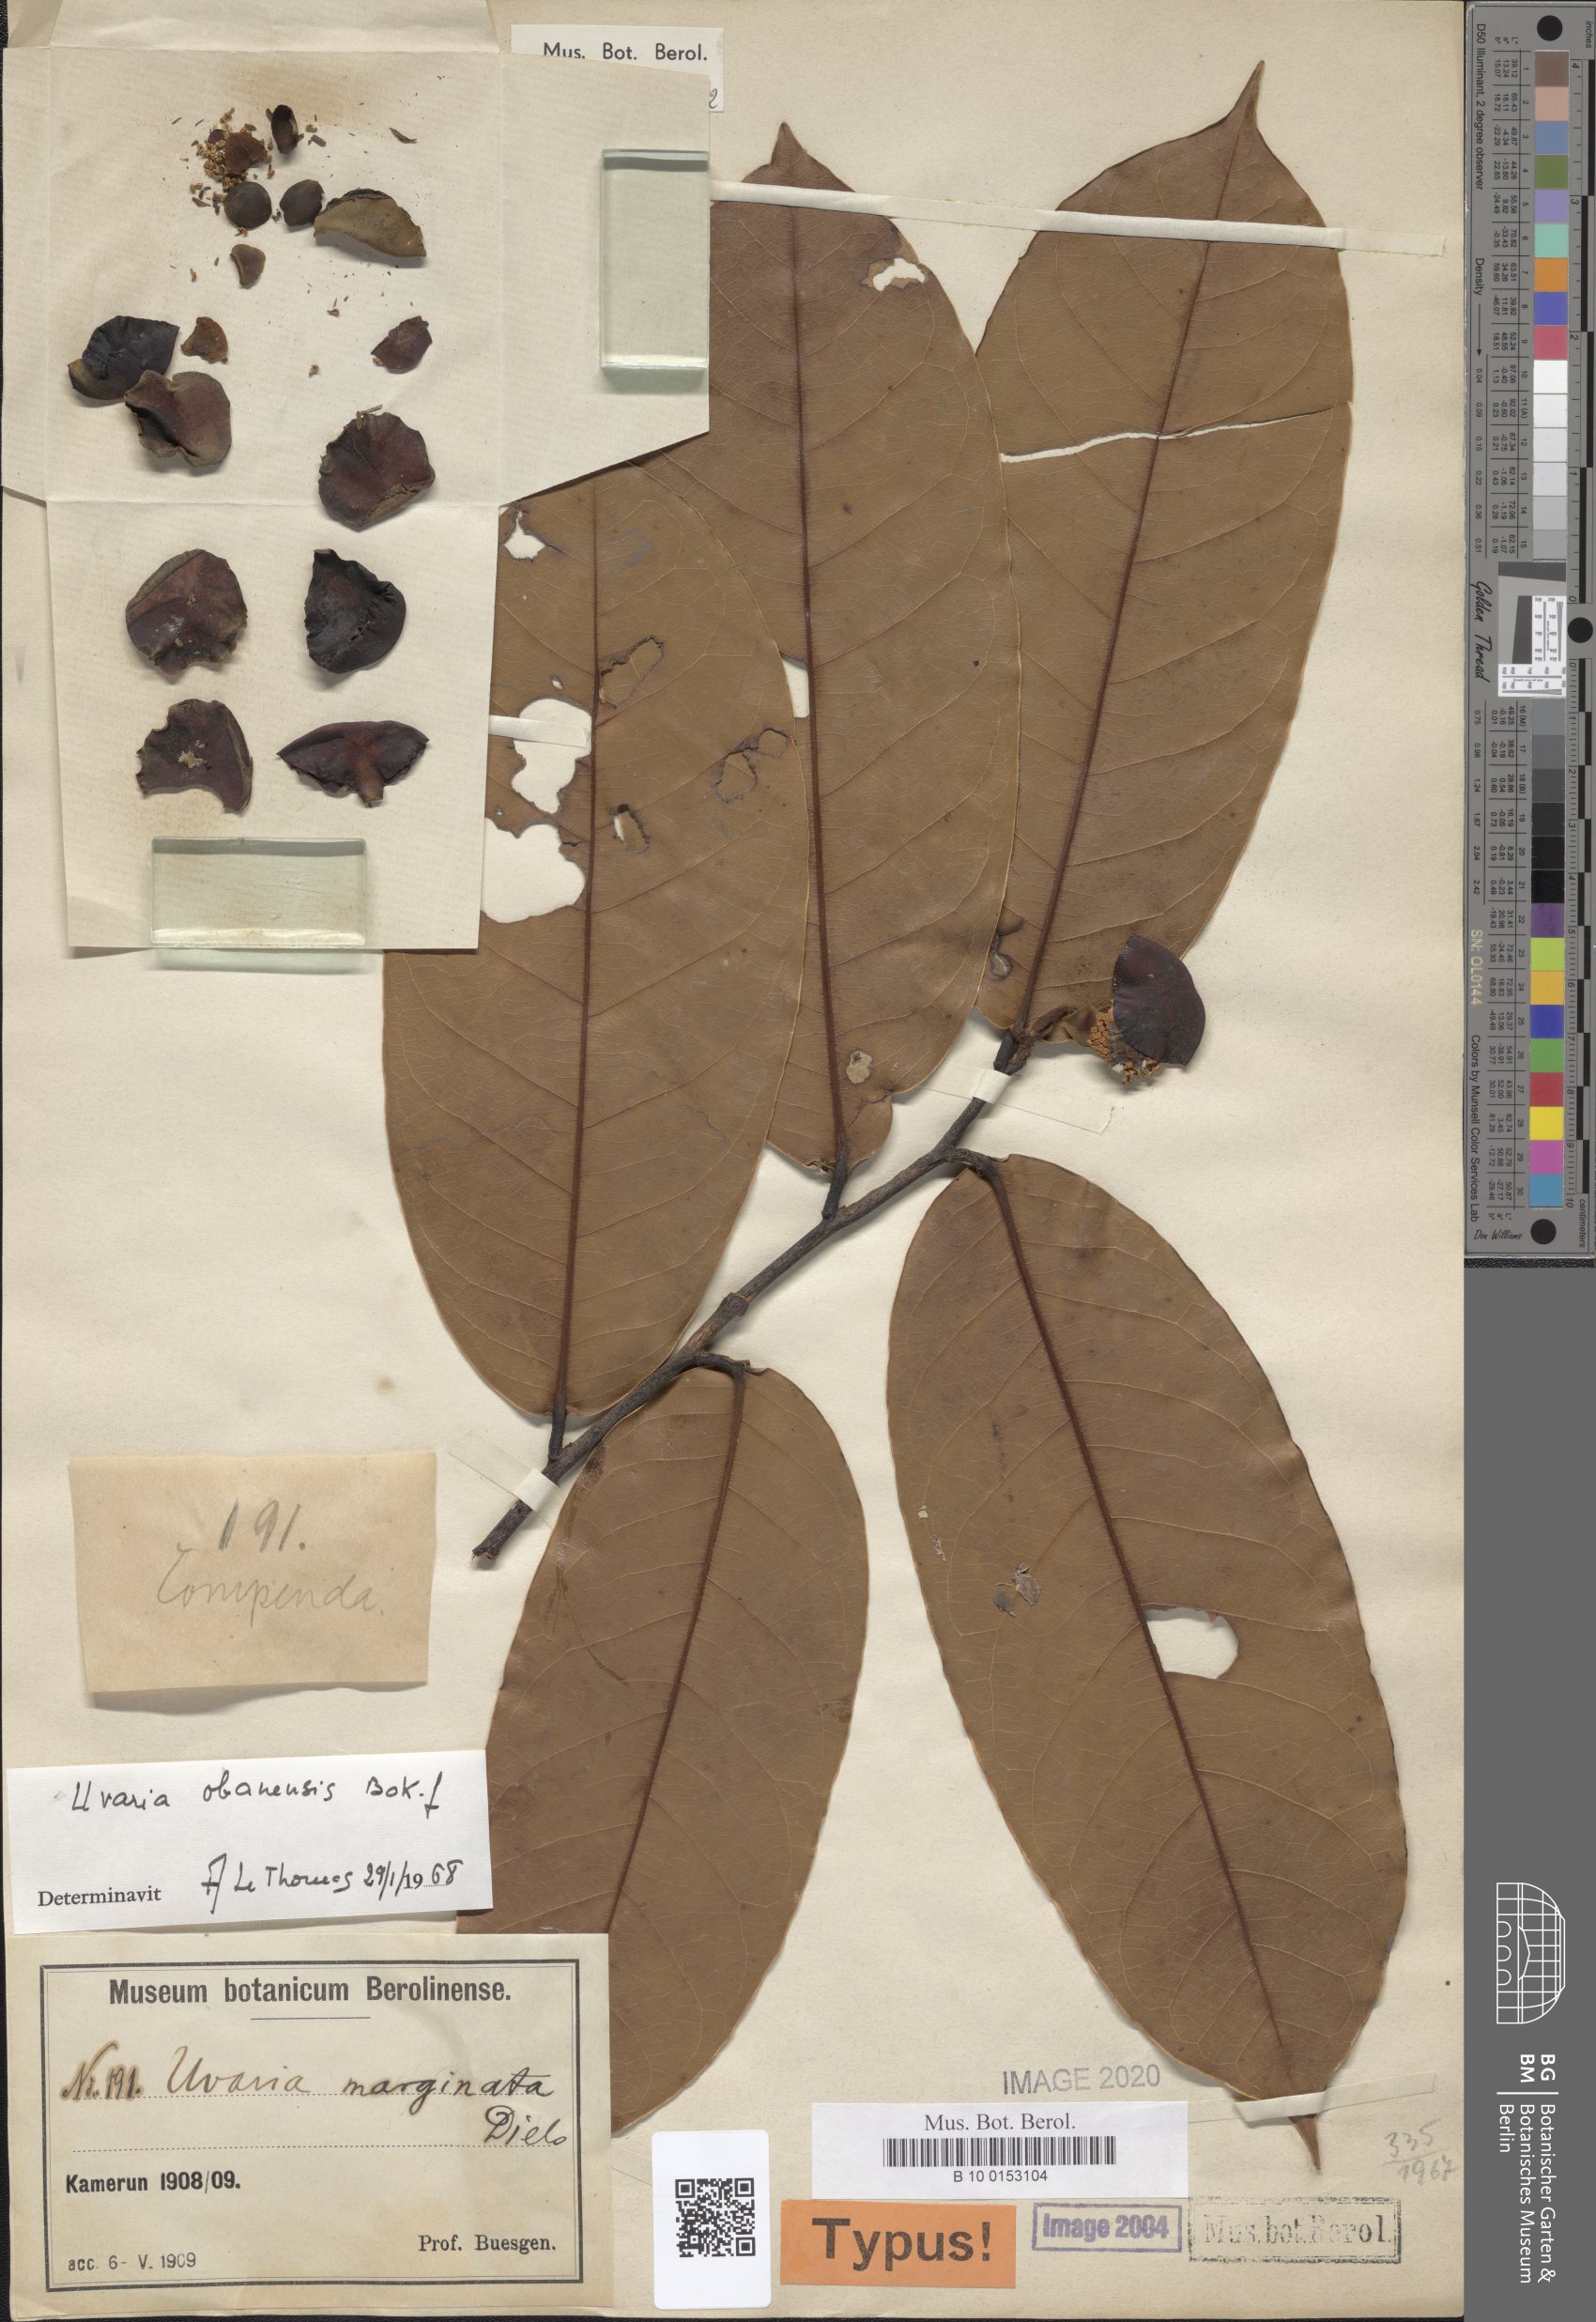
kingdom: Plantae
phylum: Tracheophyta
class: Magnoliopsida
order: Magnoliales
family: Annonaceae
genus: Uvaria
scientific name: Uvaria obanensis
